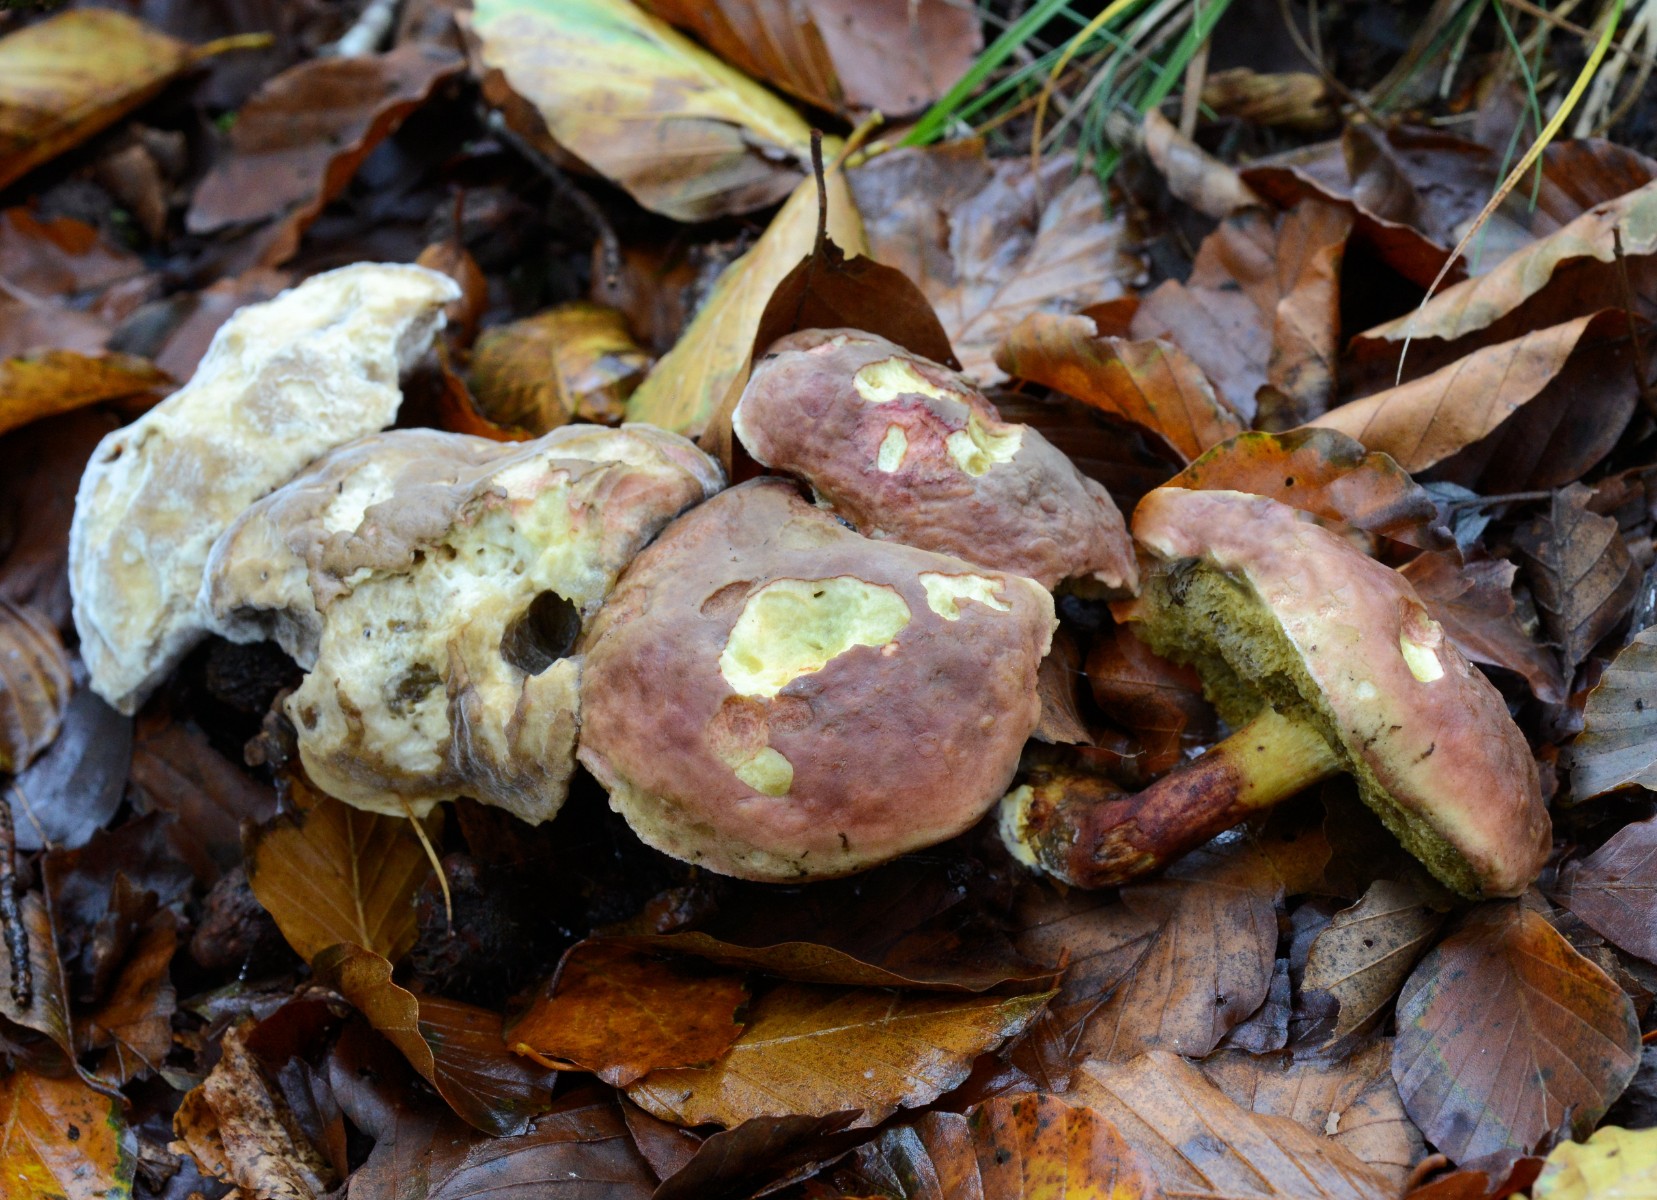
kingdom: Fungi
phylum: Basidiomycota
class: Agaricomycetes
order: Boletales
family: Boletaceae
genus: Hortiboletus
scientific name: Hortiboletus rubellus
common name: blodrød rørhat
